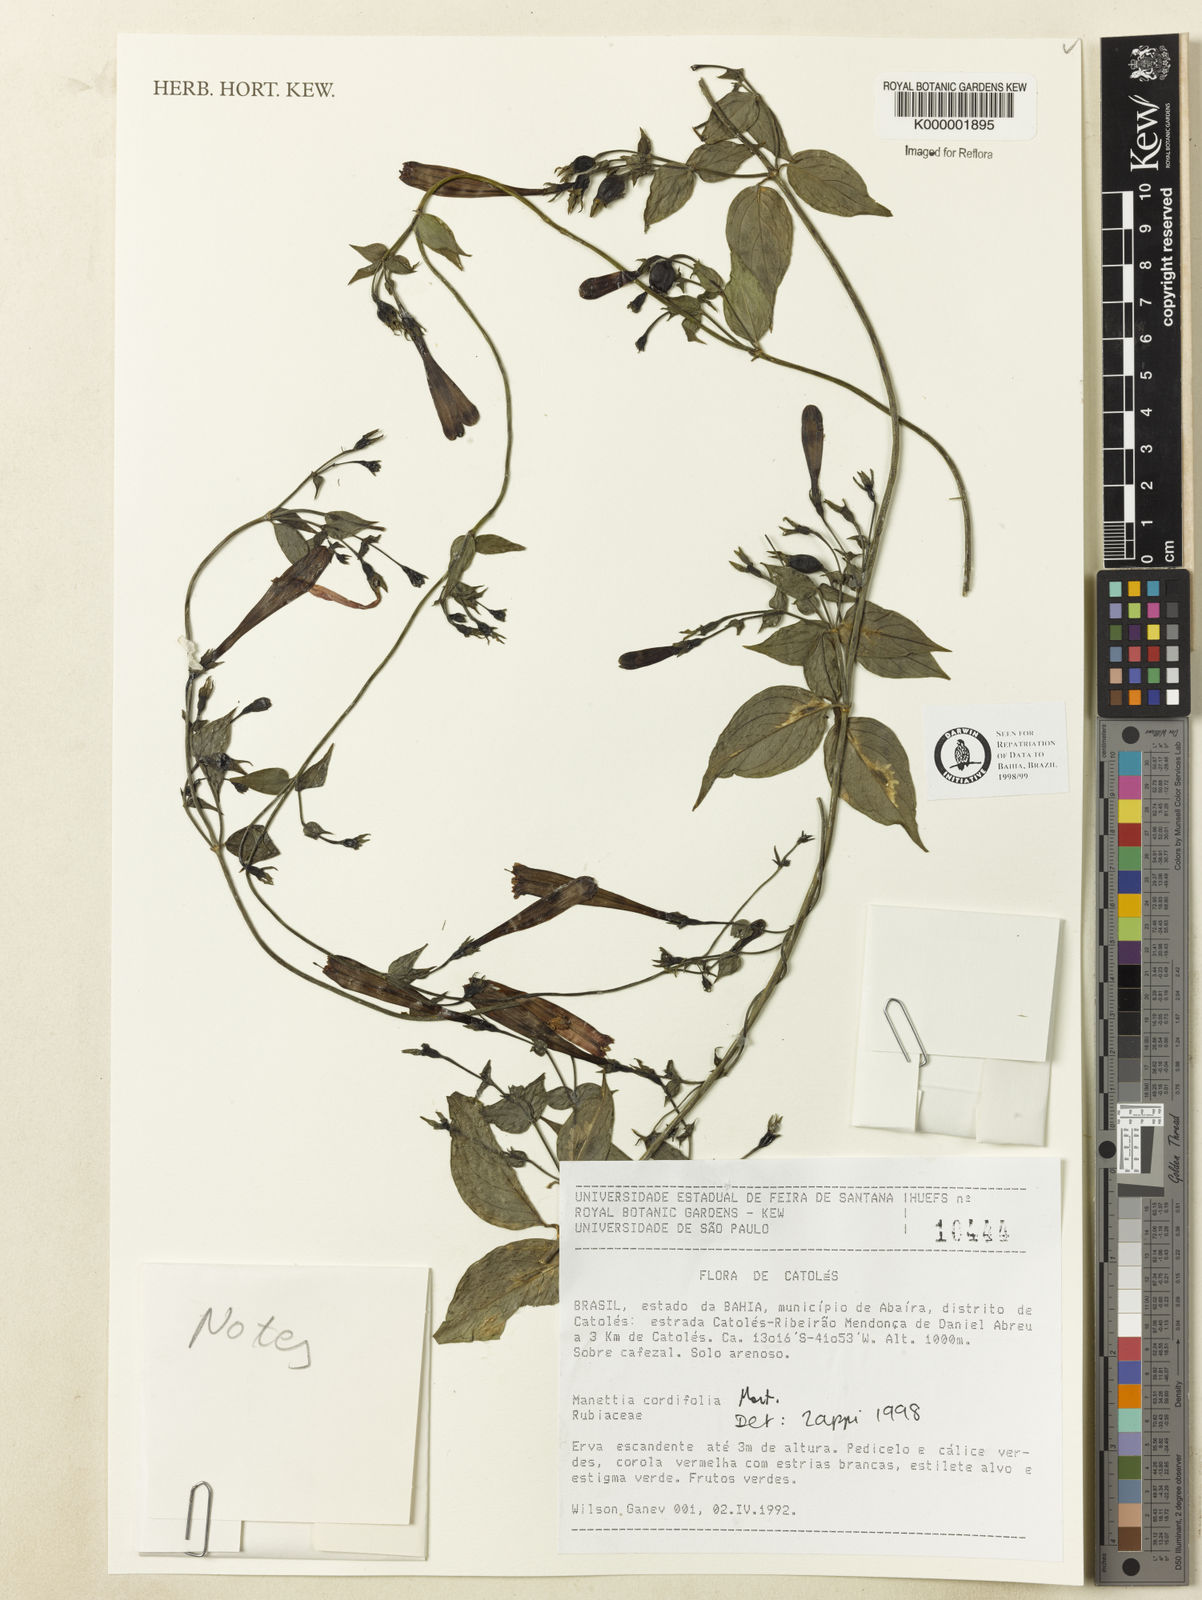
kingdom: Plantae
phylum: Tracheophyta
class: Magnoliopsida
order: Gentianales
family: Rubiaceae
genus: Manettia
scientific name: Manettia cordifolia
